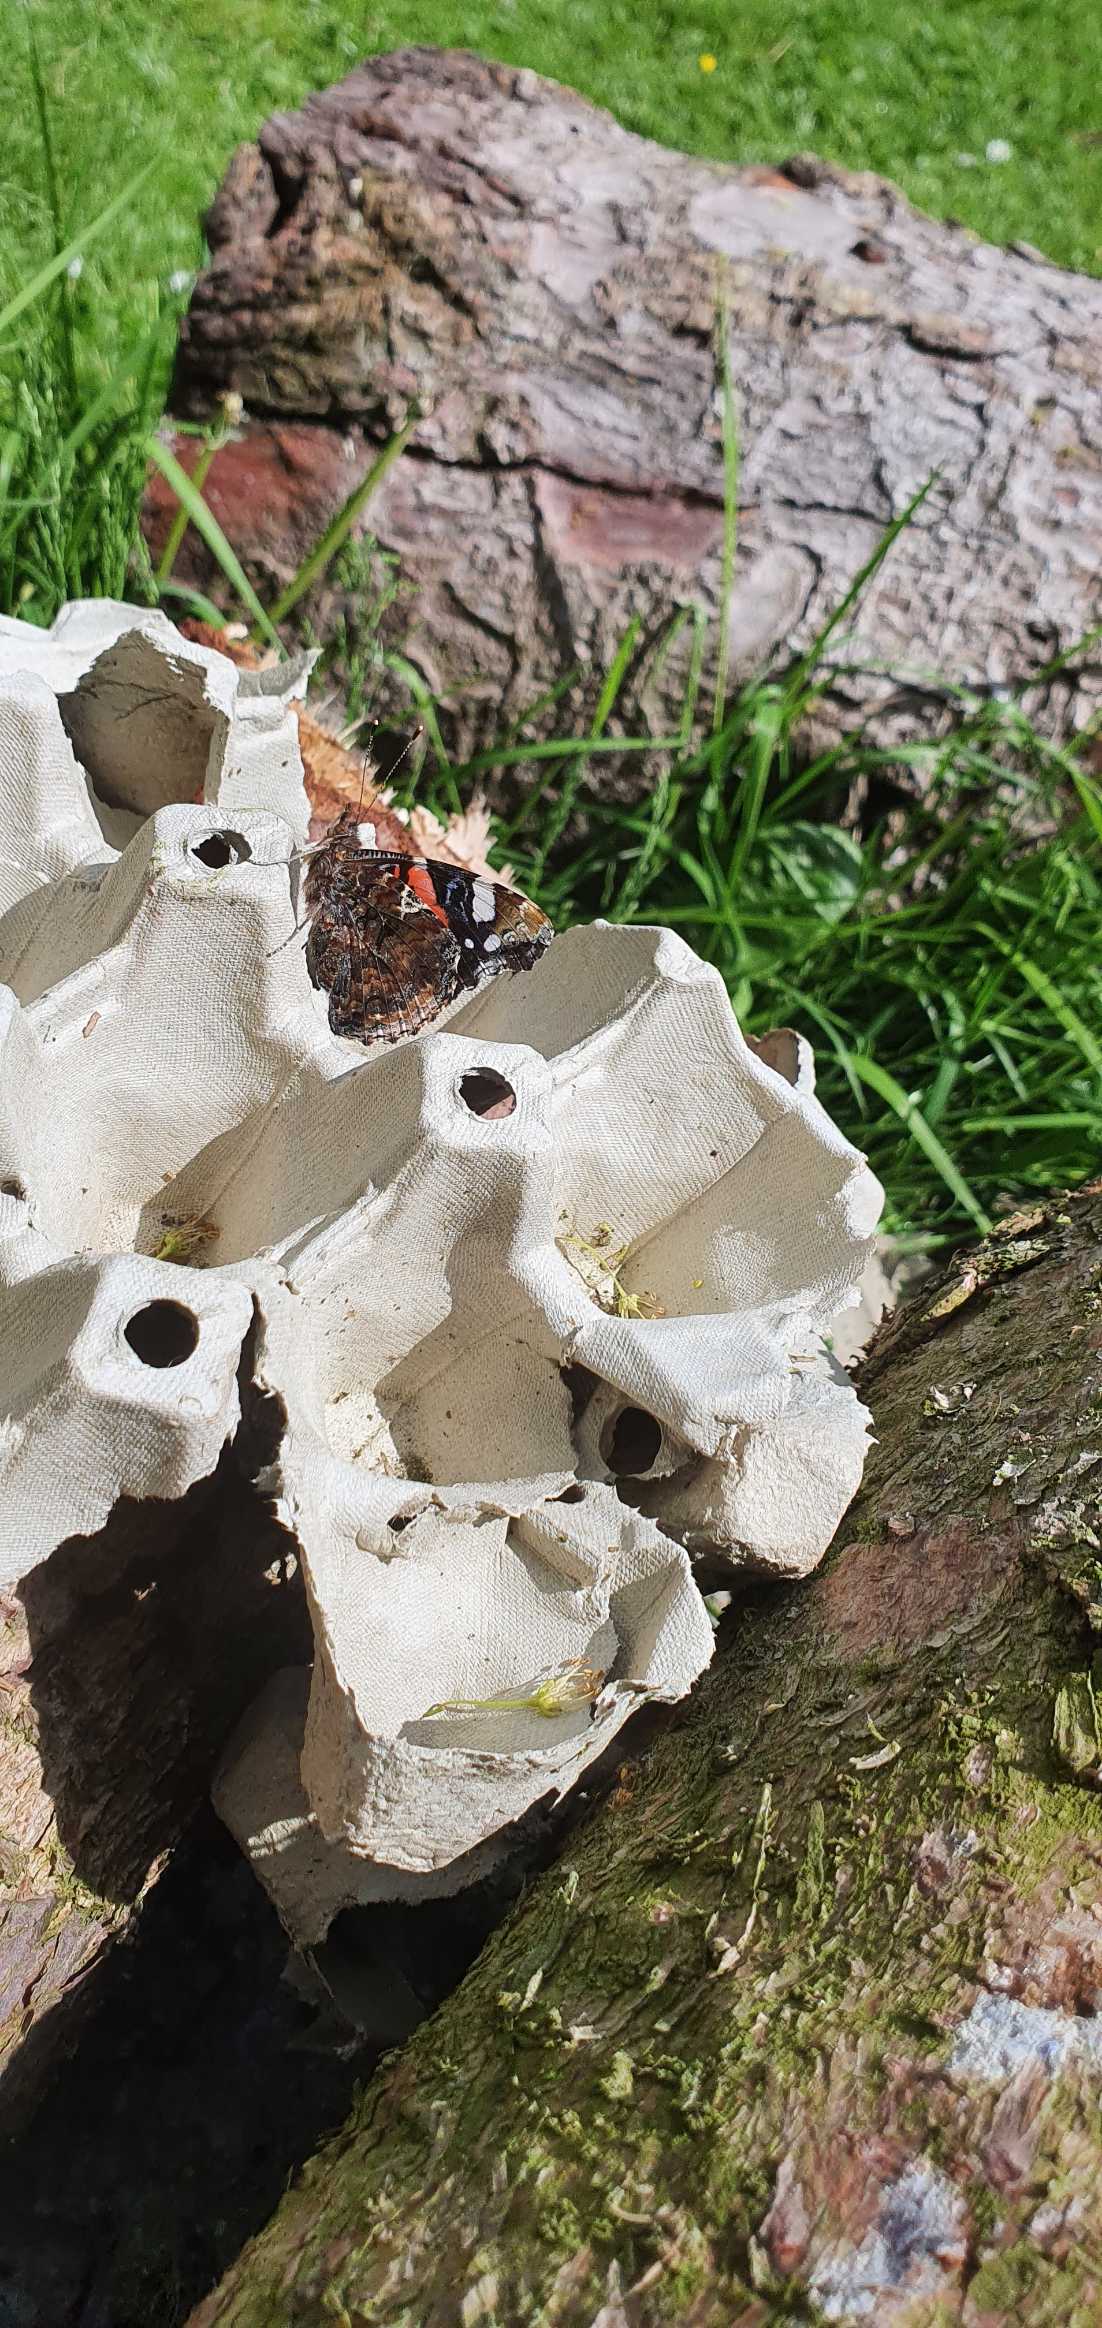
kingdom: Animalia
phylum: Arthropoda
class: Insecta
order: Lepidoptera
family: Nymphalidae
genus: Vanessa
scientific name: Vanessa atalanta
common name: Admiral
